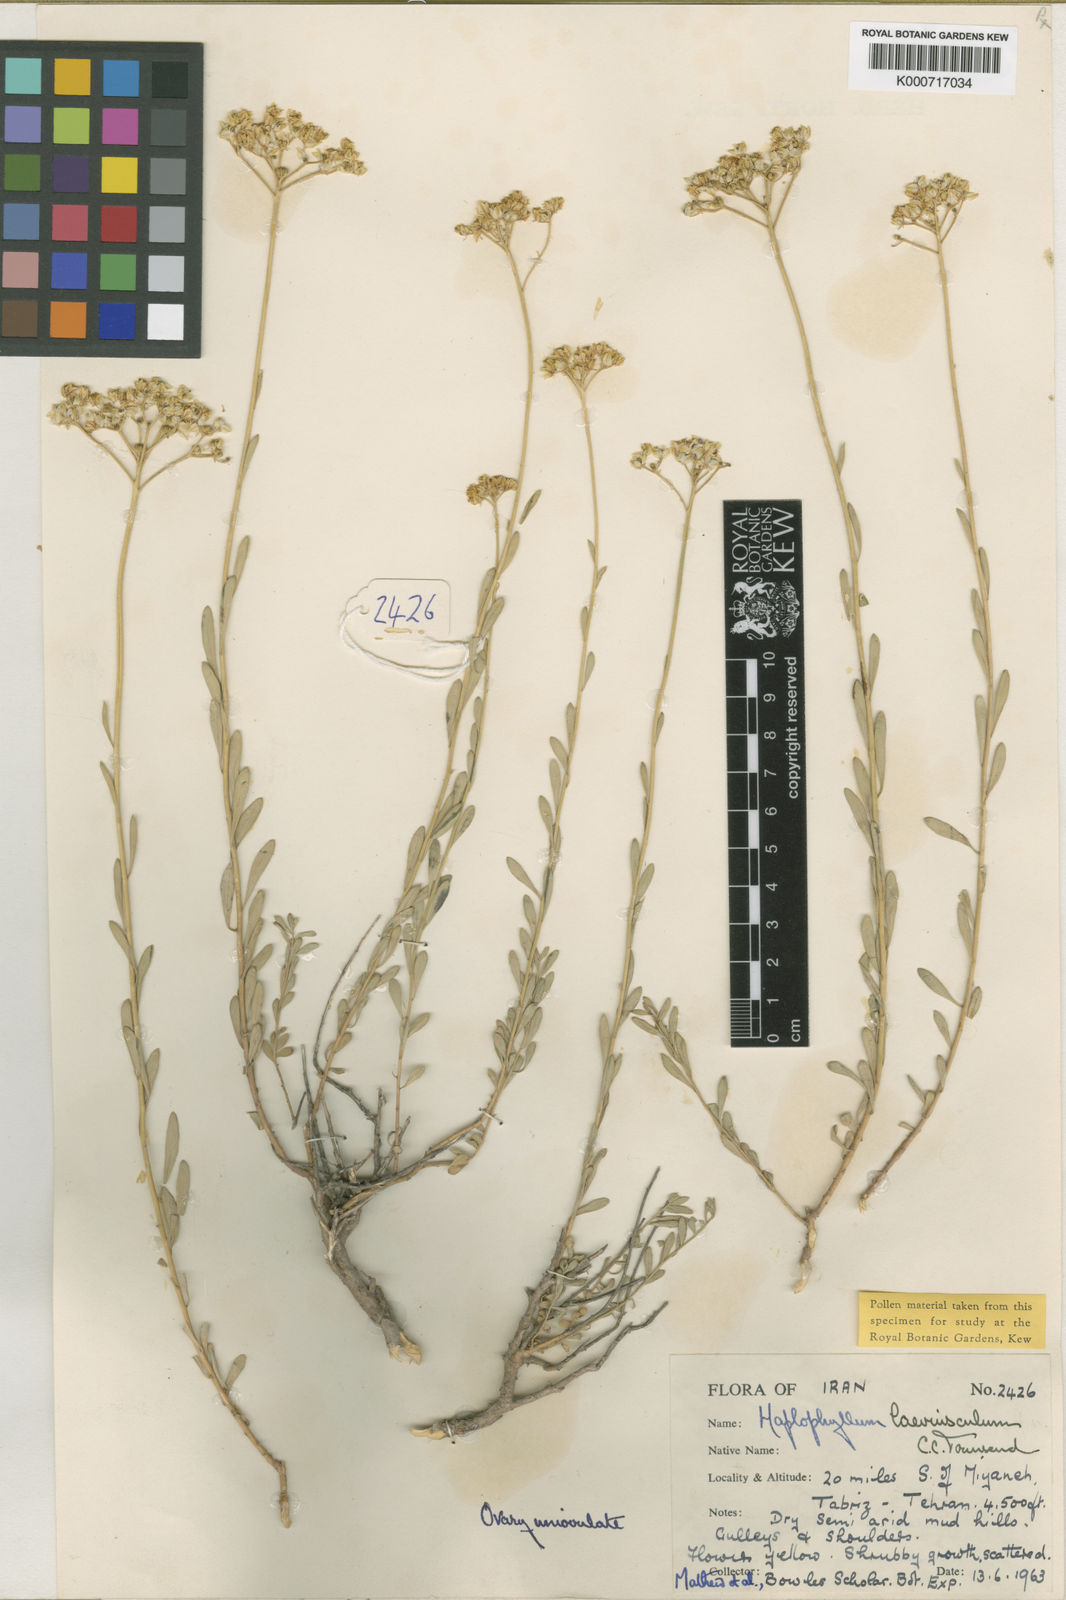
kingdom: Plantae
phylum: Tracheophyta
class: Magnoliopsida
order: Sapindales
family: Rutaceae
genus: Haplophyllum
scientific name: Haplophyllum laeviusculum
